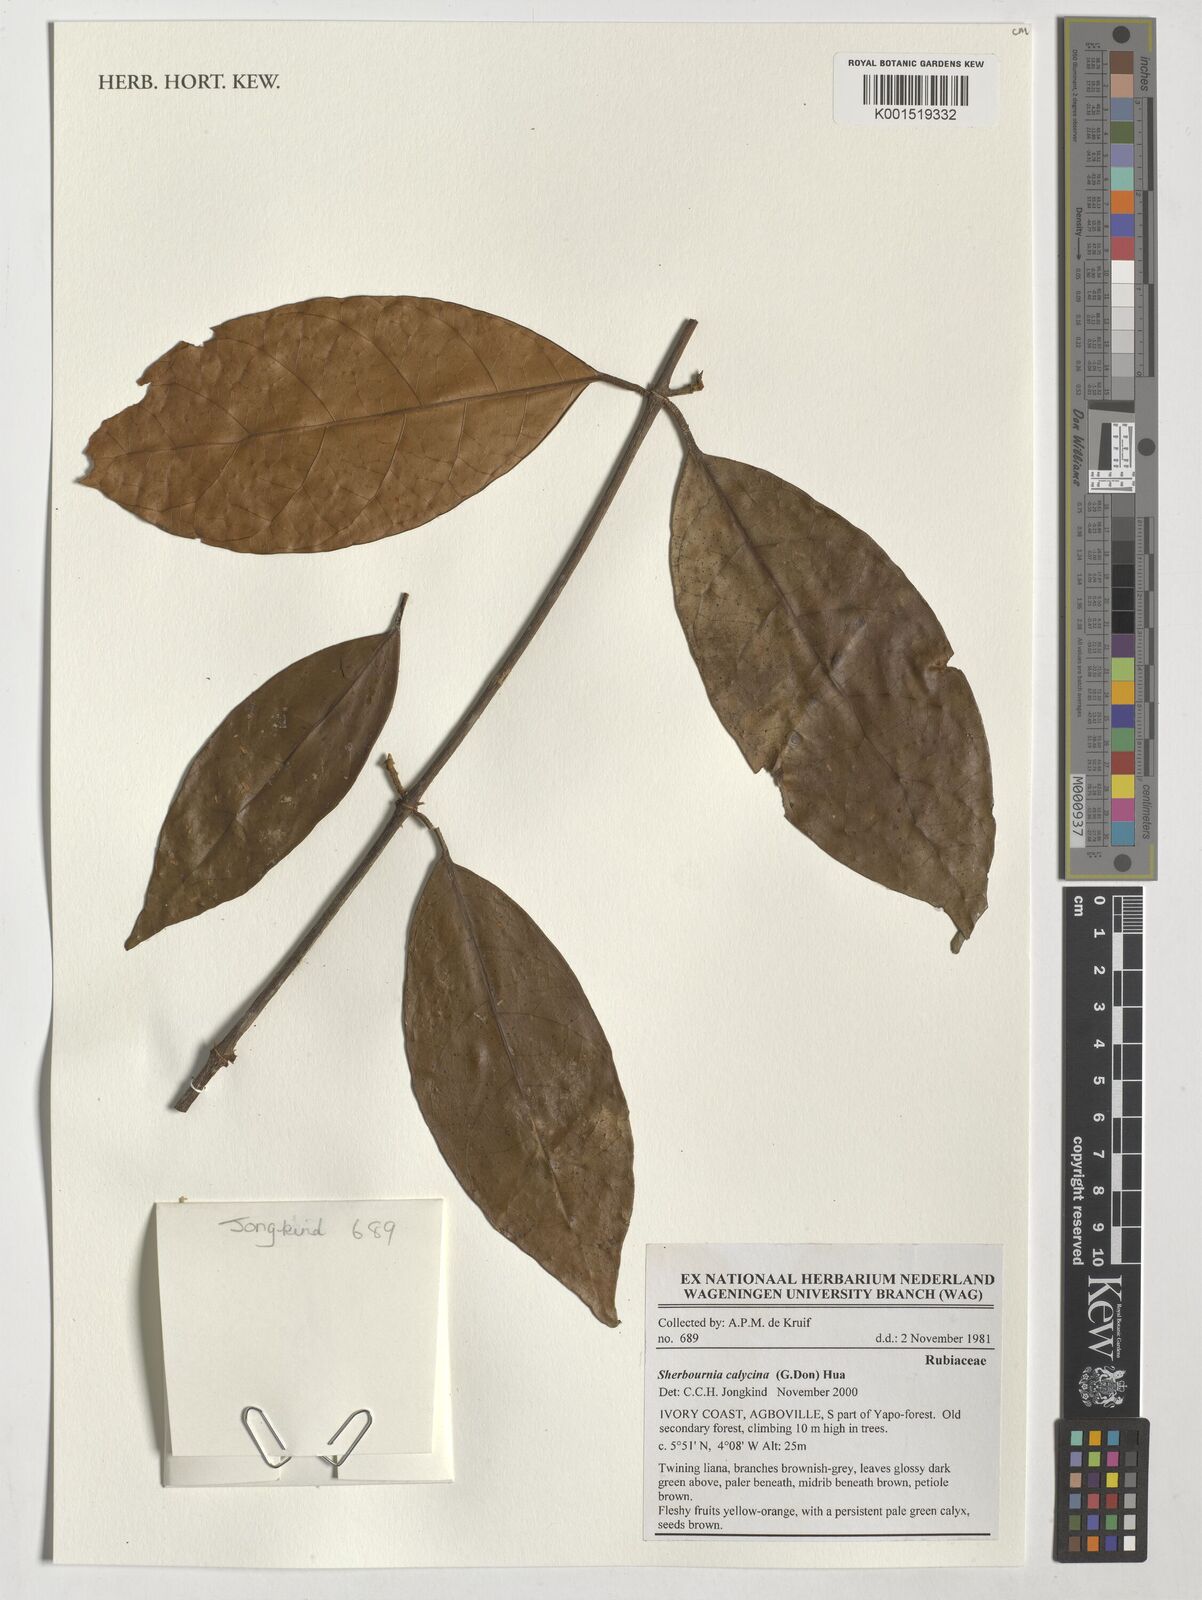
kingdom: Plantae
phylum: Tracheophyta
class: Magnoliopsida
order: Gentianales
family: Rubiaceae
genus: Sherbournia
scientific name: Sherbournia calycina
